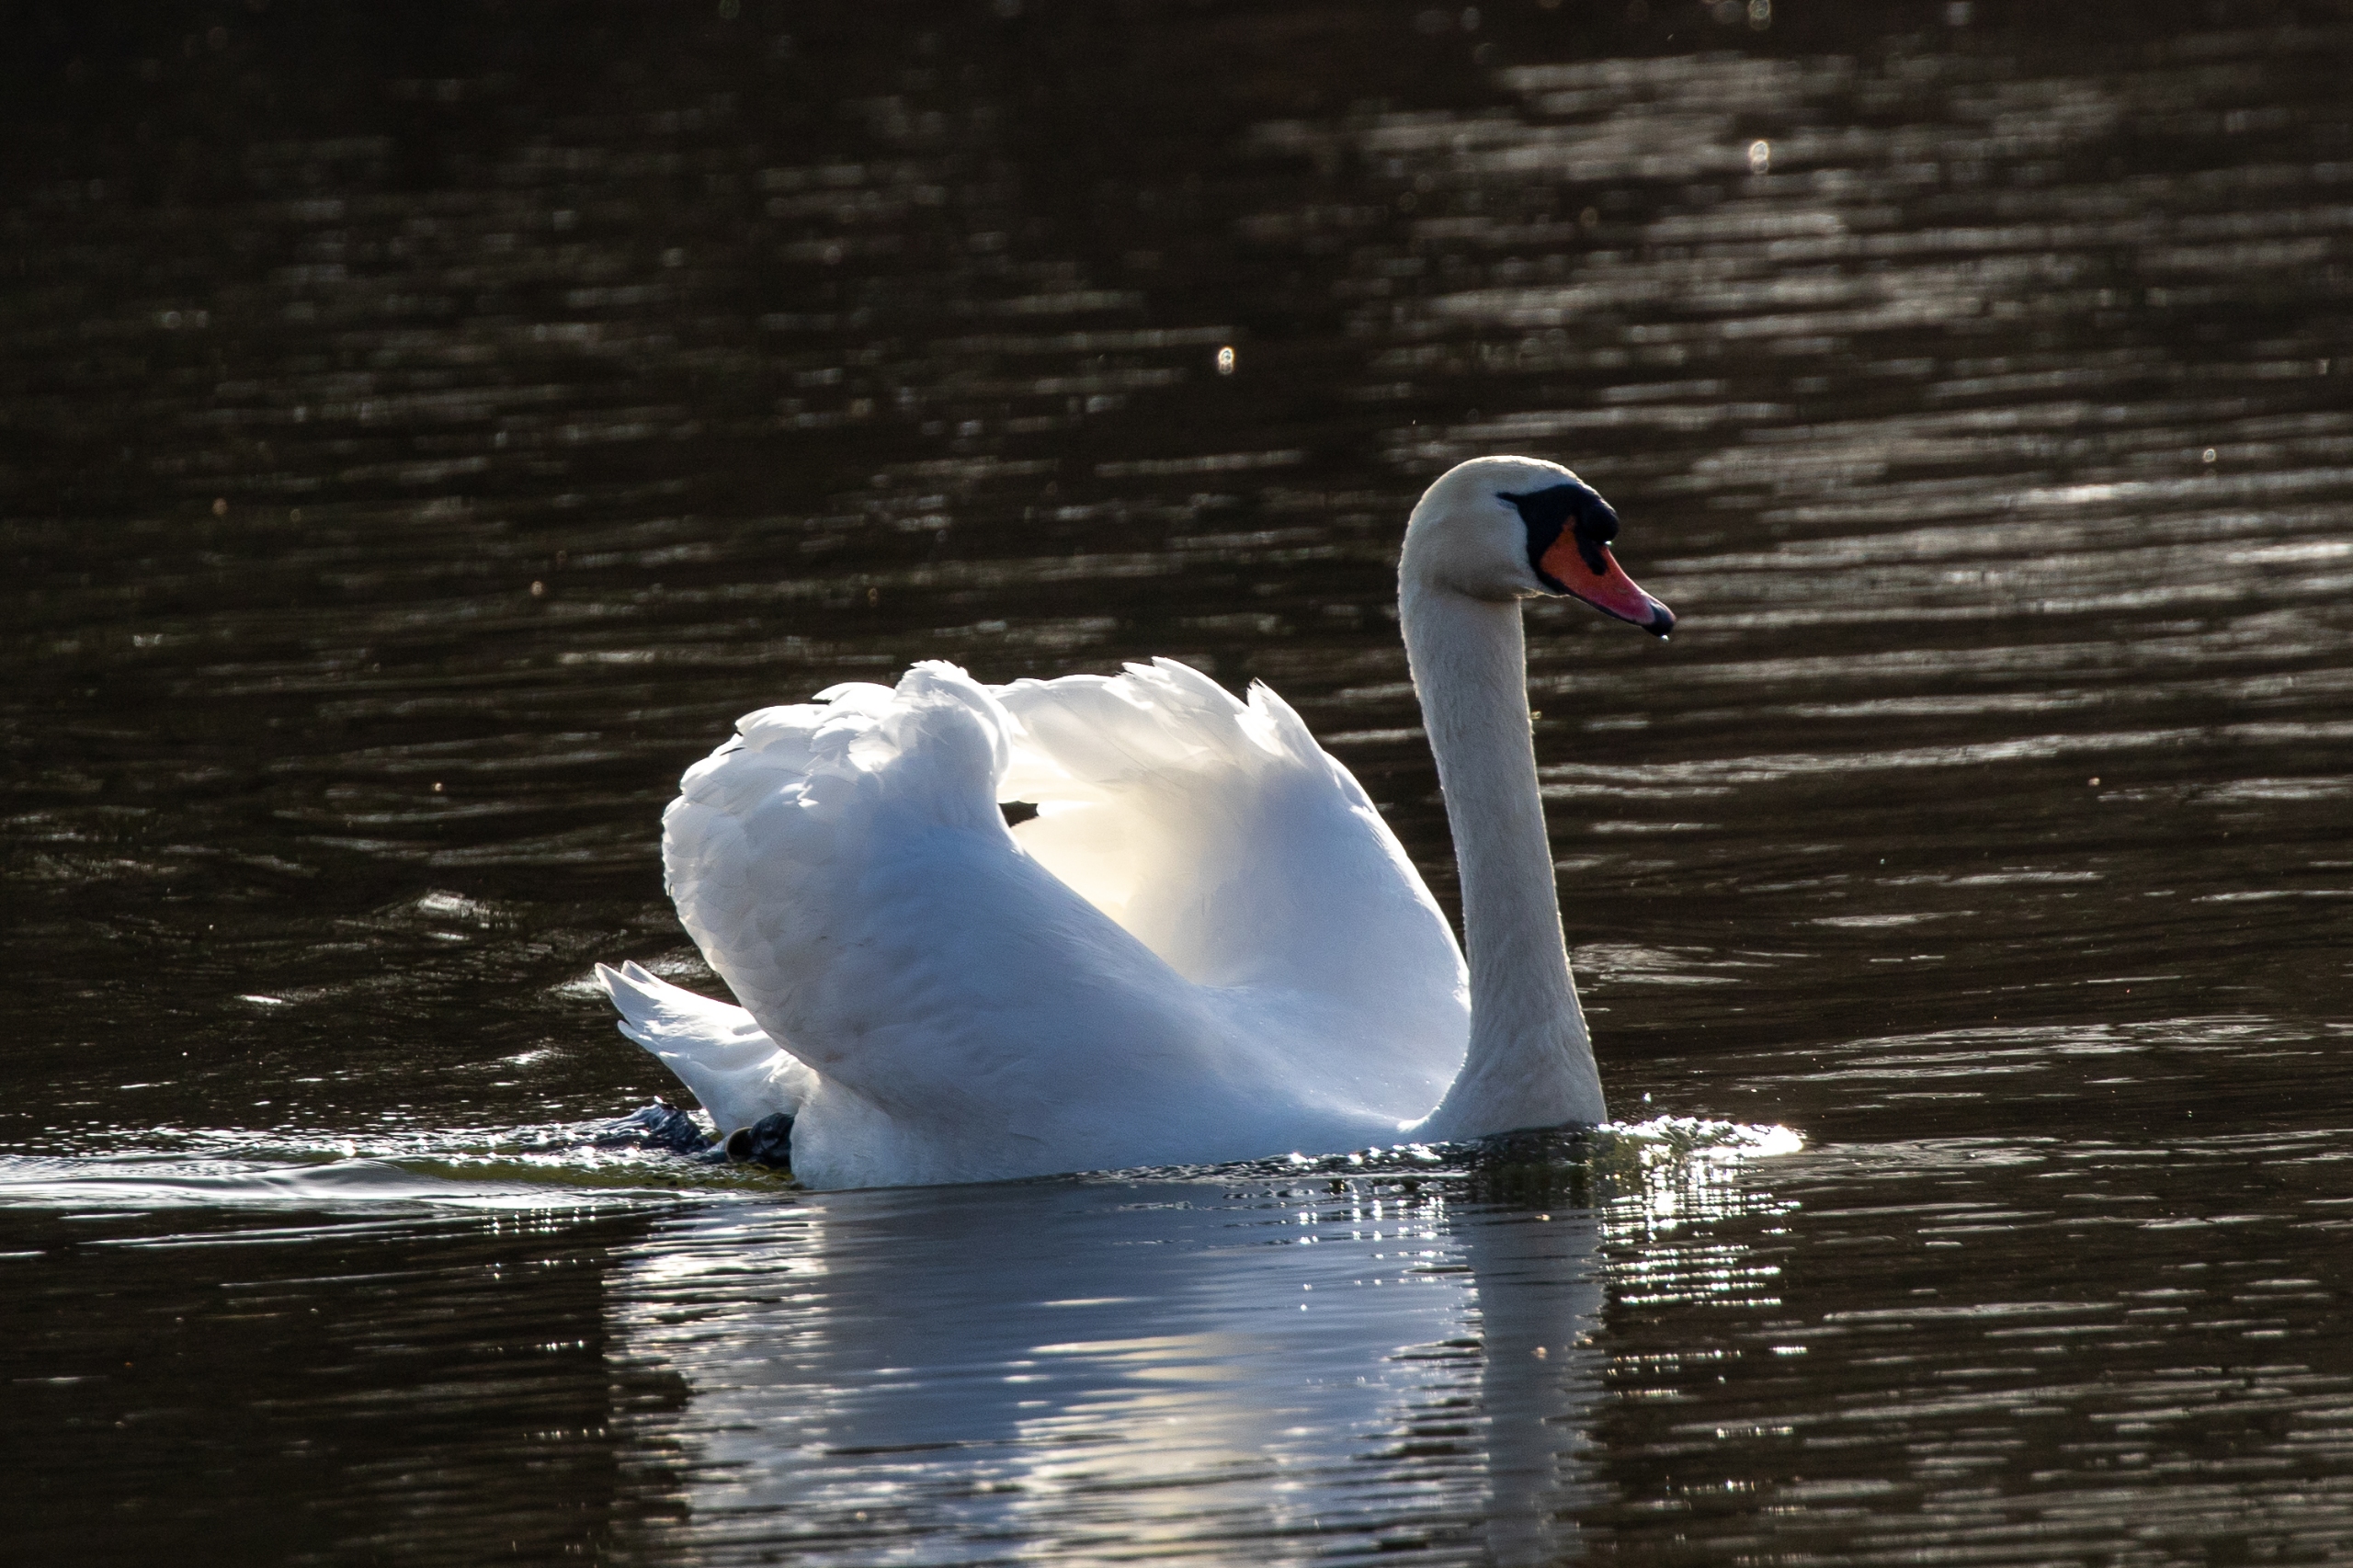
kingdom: Animalia
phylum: Chordata
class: Aves
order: Anseriformes
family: Anatidae
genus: Cygnus
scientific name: Cygnus olor
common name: Knopsvane
